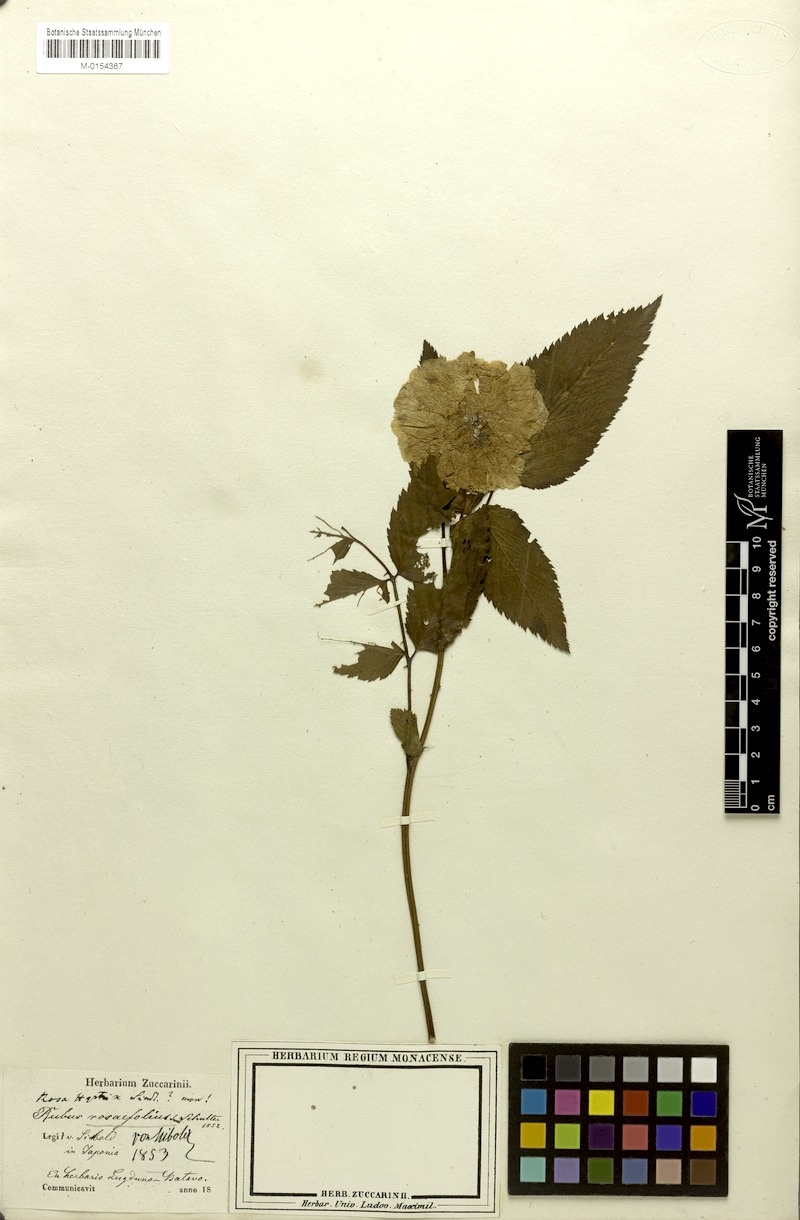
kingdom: Plantae
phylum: Tracheophyta
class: Magnoliopsida
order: Rosales
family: Rosaceae
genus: Rubus
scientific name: Rubus rosifolius
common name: Roseleaf raspberry
